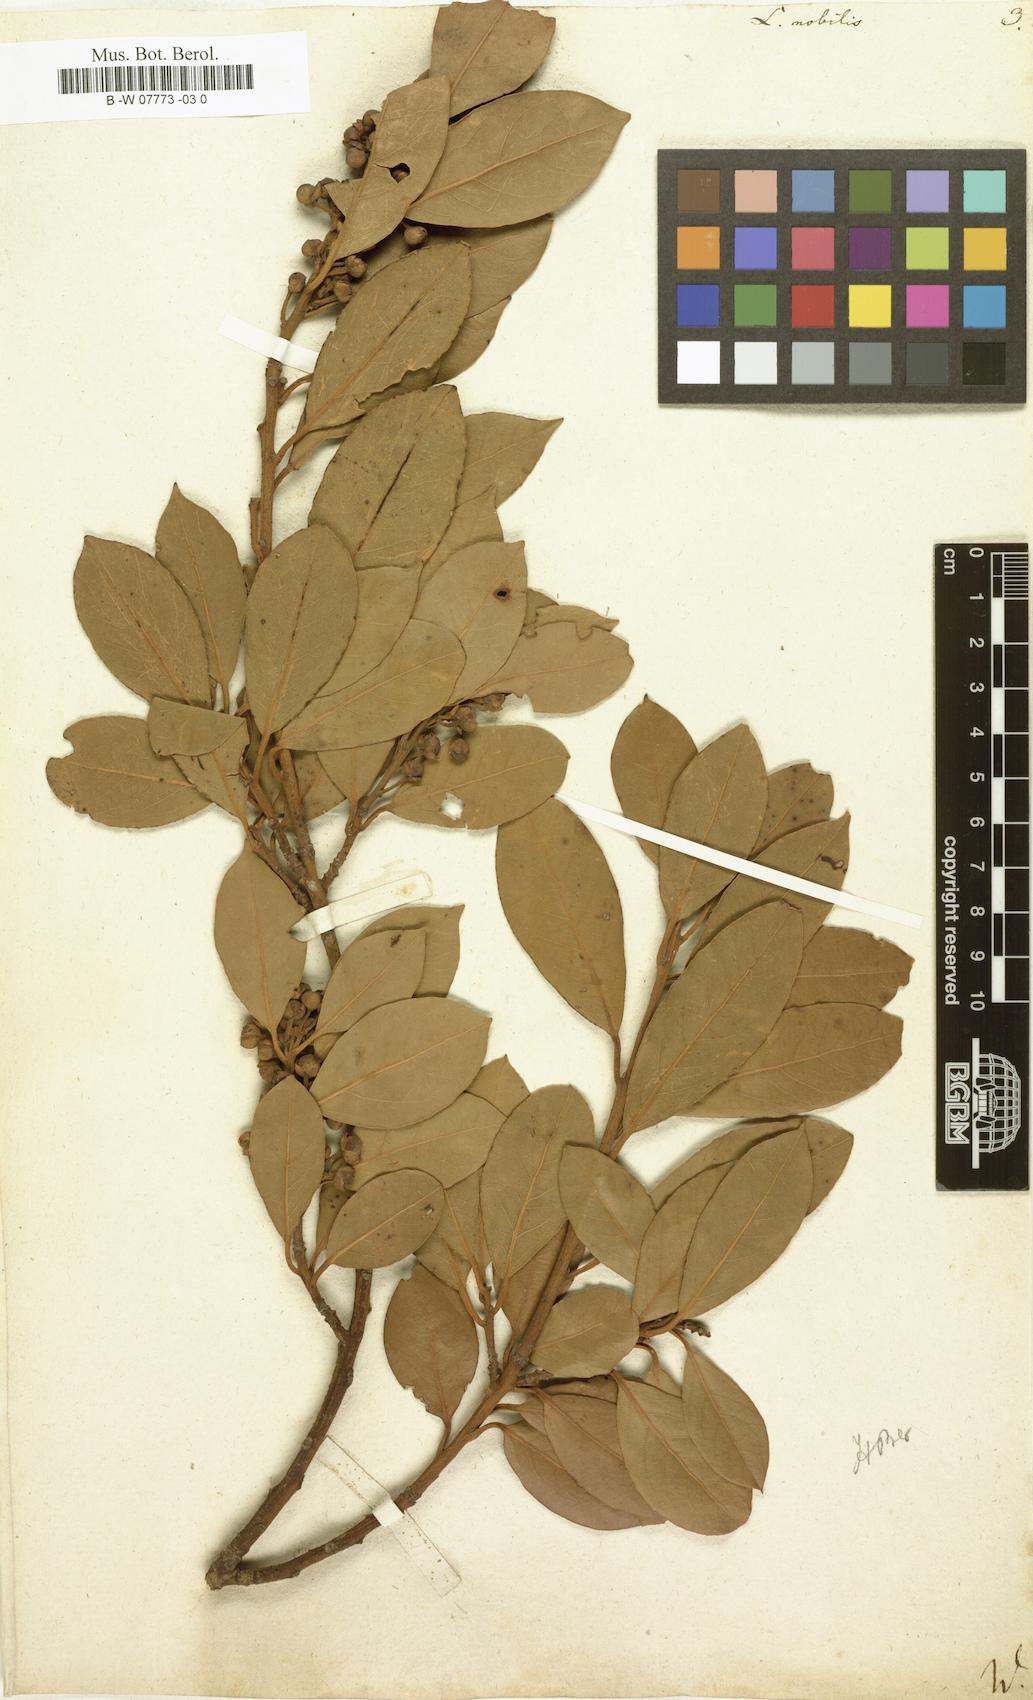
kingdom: Plantae
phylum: Tracheophyta
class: Magnoliopsida
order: Laurales
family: Lauraceae
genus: Laurus
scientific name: Laurus nobilis
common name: Bay
